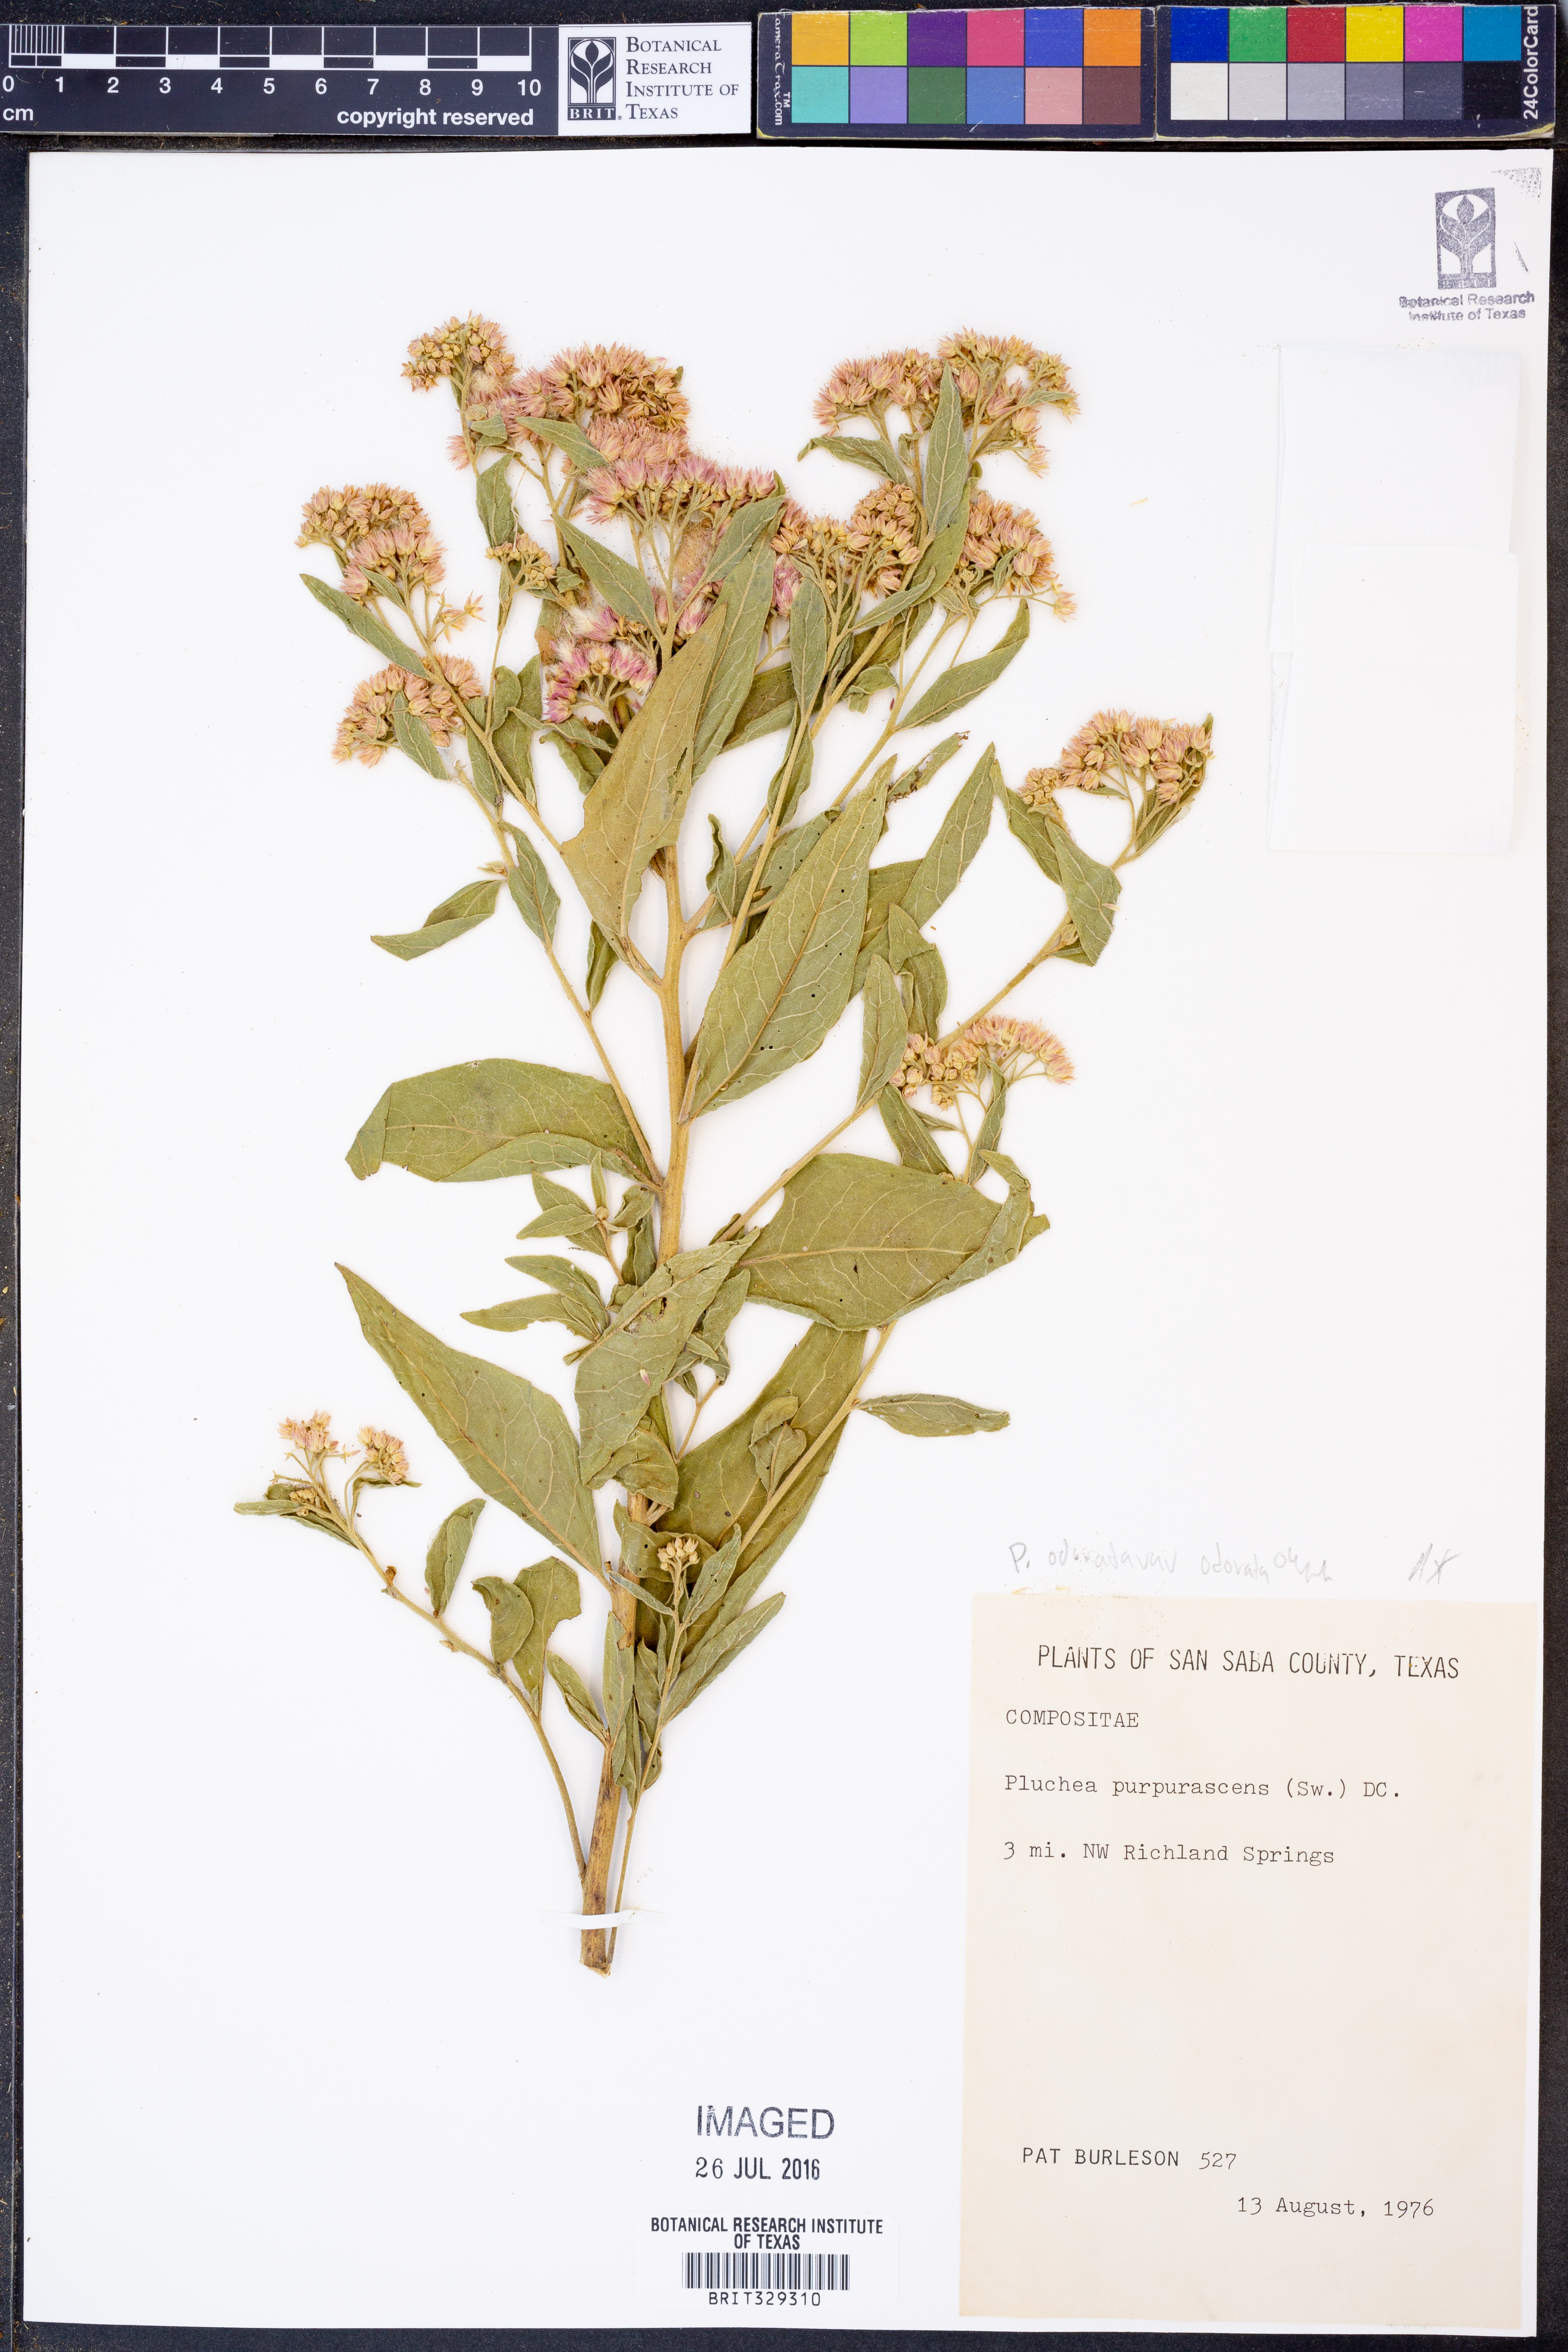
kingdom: Plantae
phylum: Tracheophyta
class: Magnoliopsida
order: Asterales
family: Asteraceae
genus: Pluchea
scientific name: Pluchea odorata
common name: Saltmarsh fleabane
